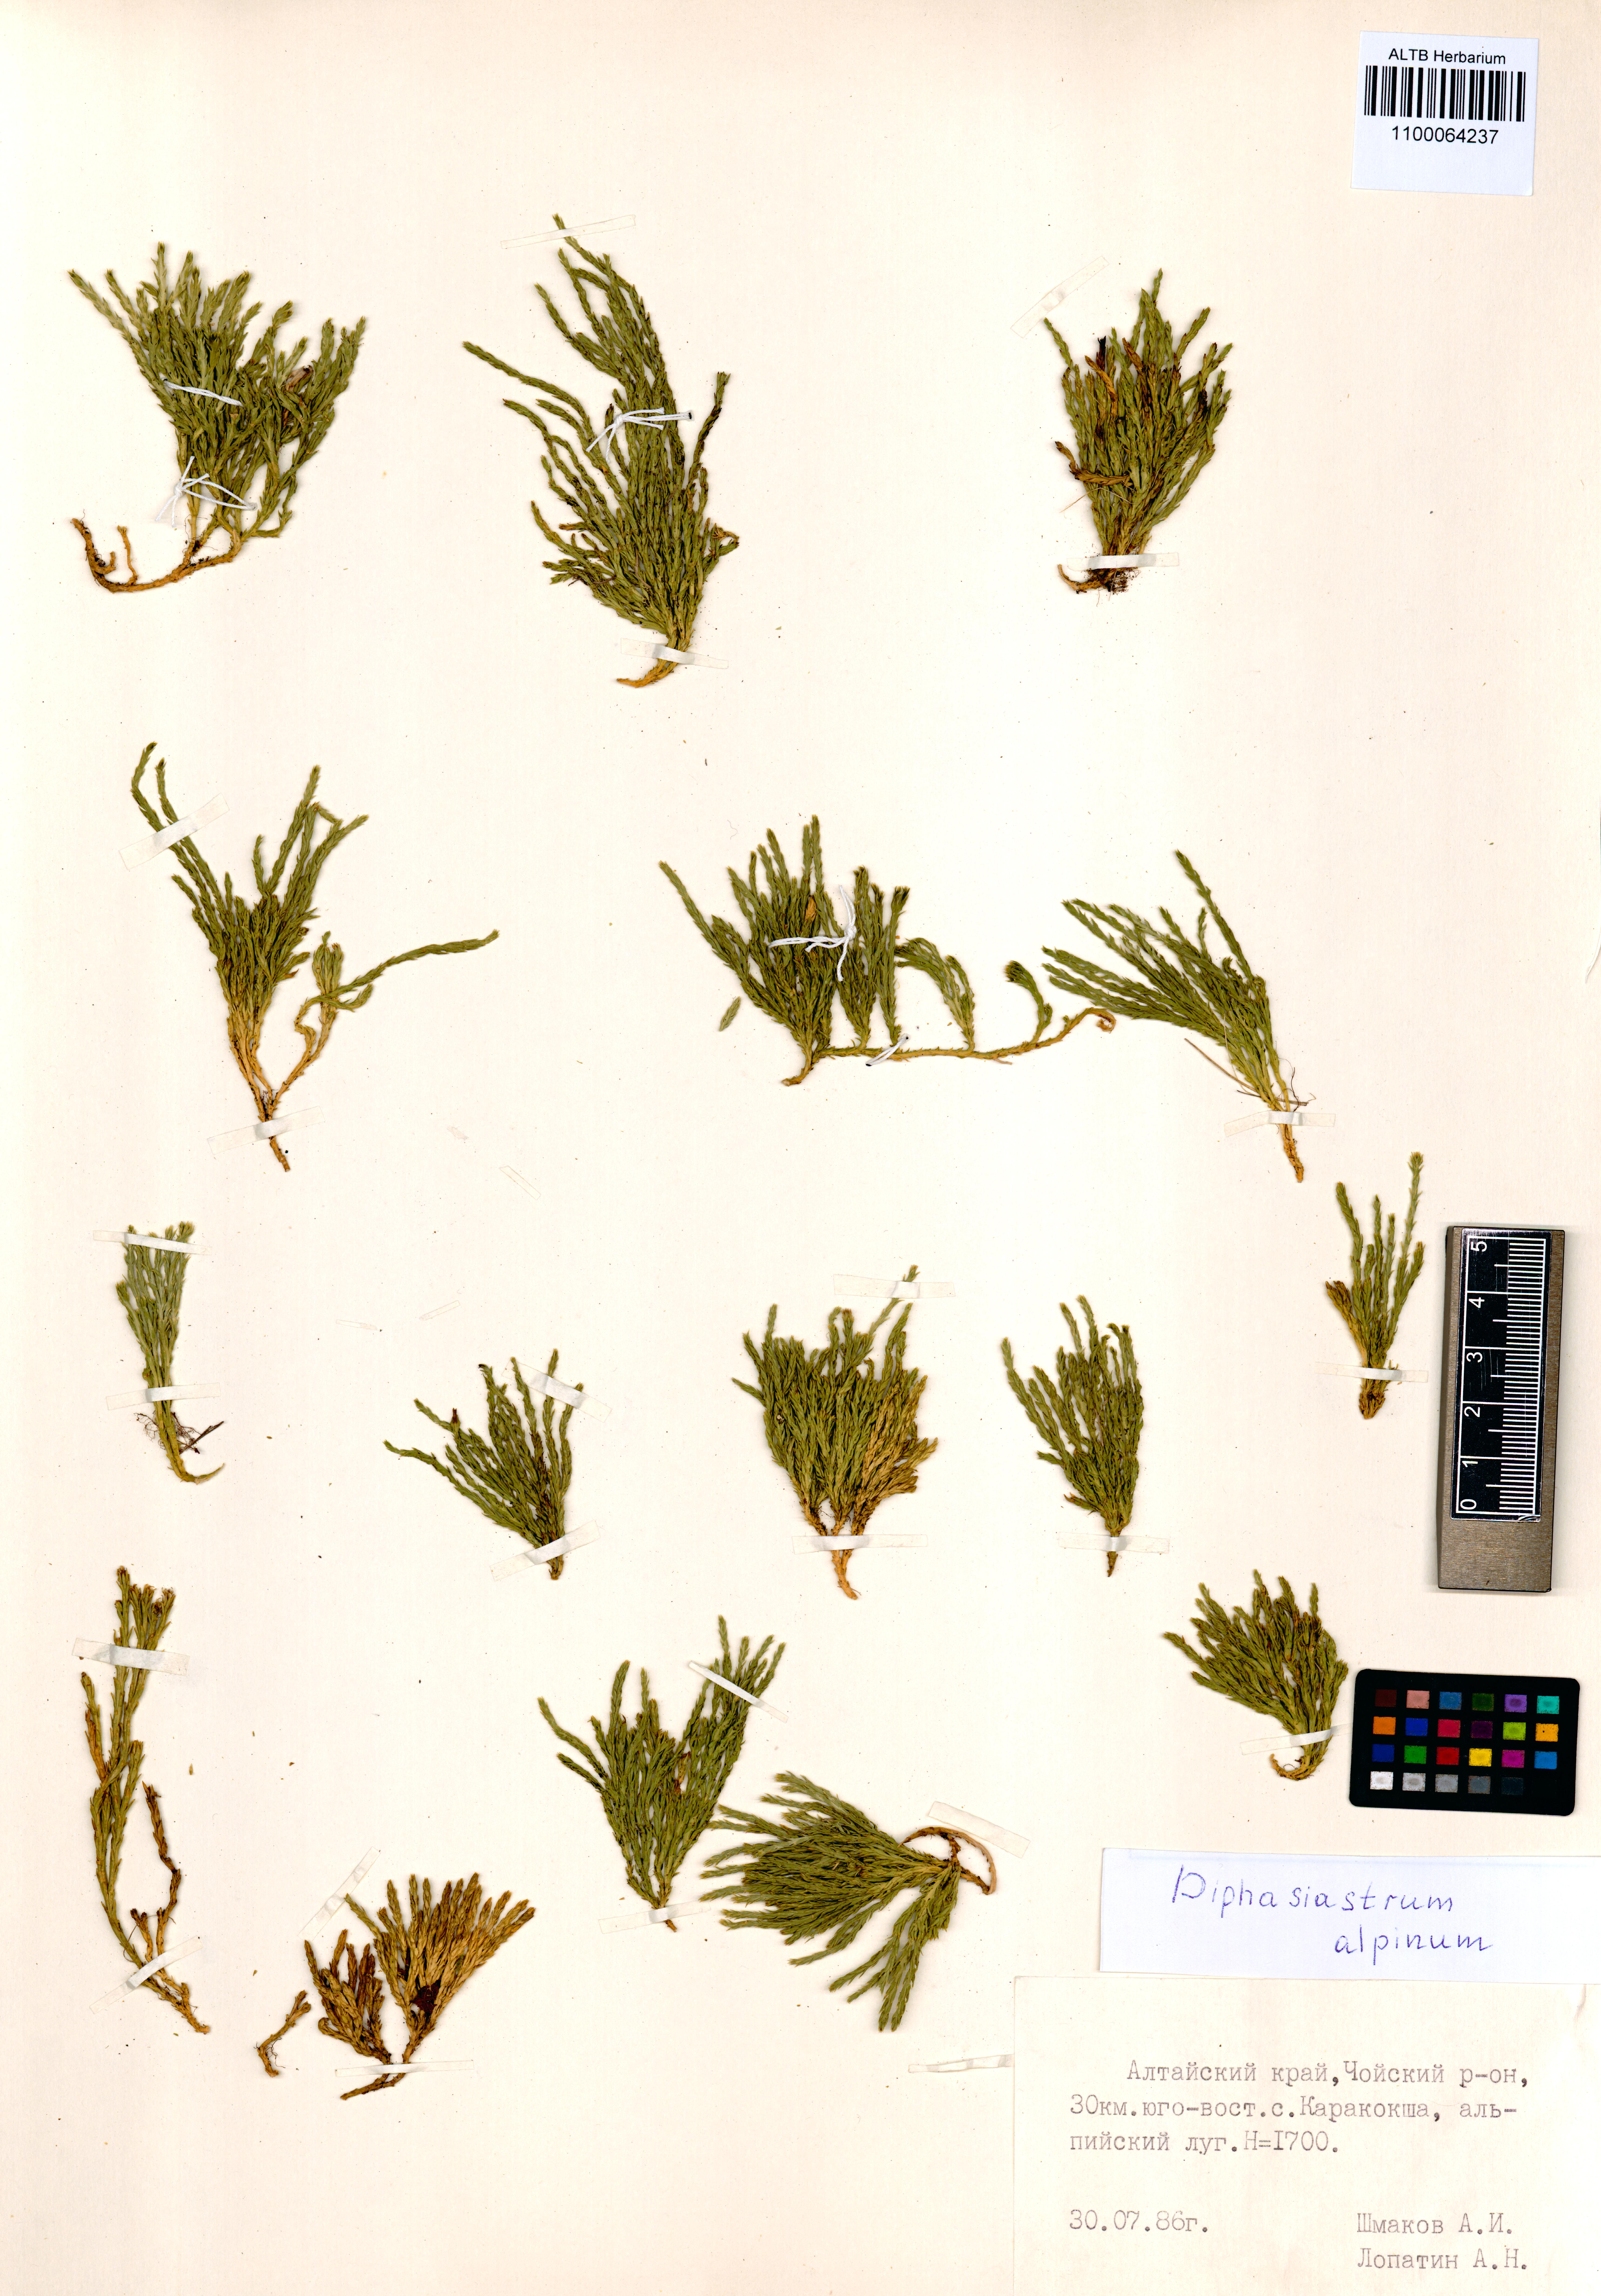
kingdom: Plantae
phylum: Tracheophyta
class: Lycopodiopsida
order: Lycopodiales
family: Lycopodiaceae
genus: Diphasiastrum
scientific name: Diphasiastrum alpinum
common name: Alpine clubmoss
